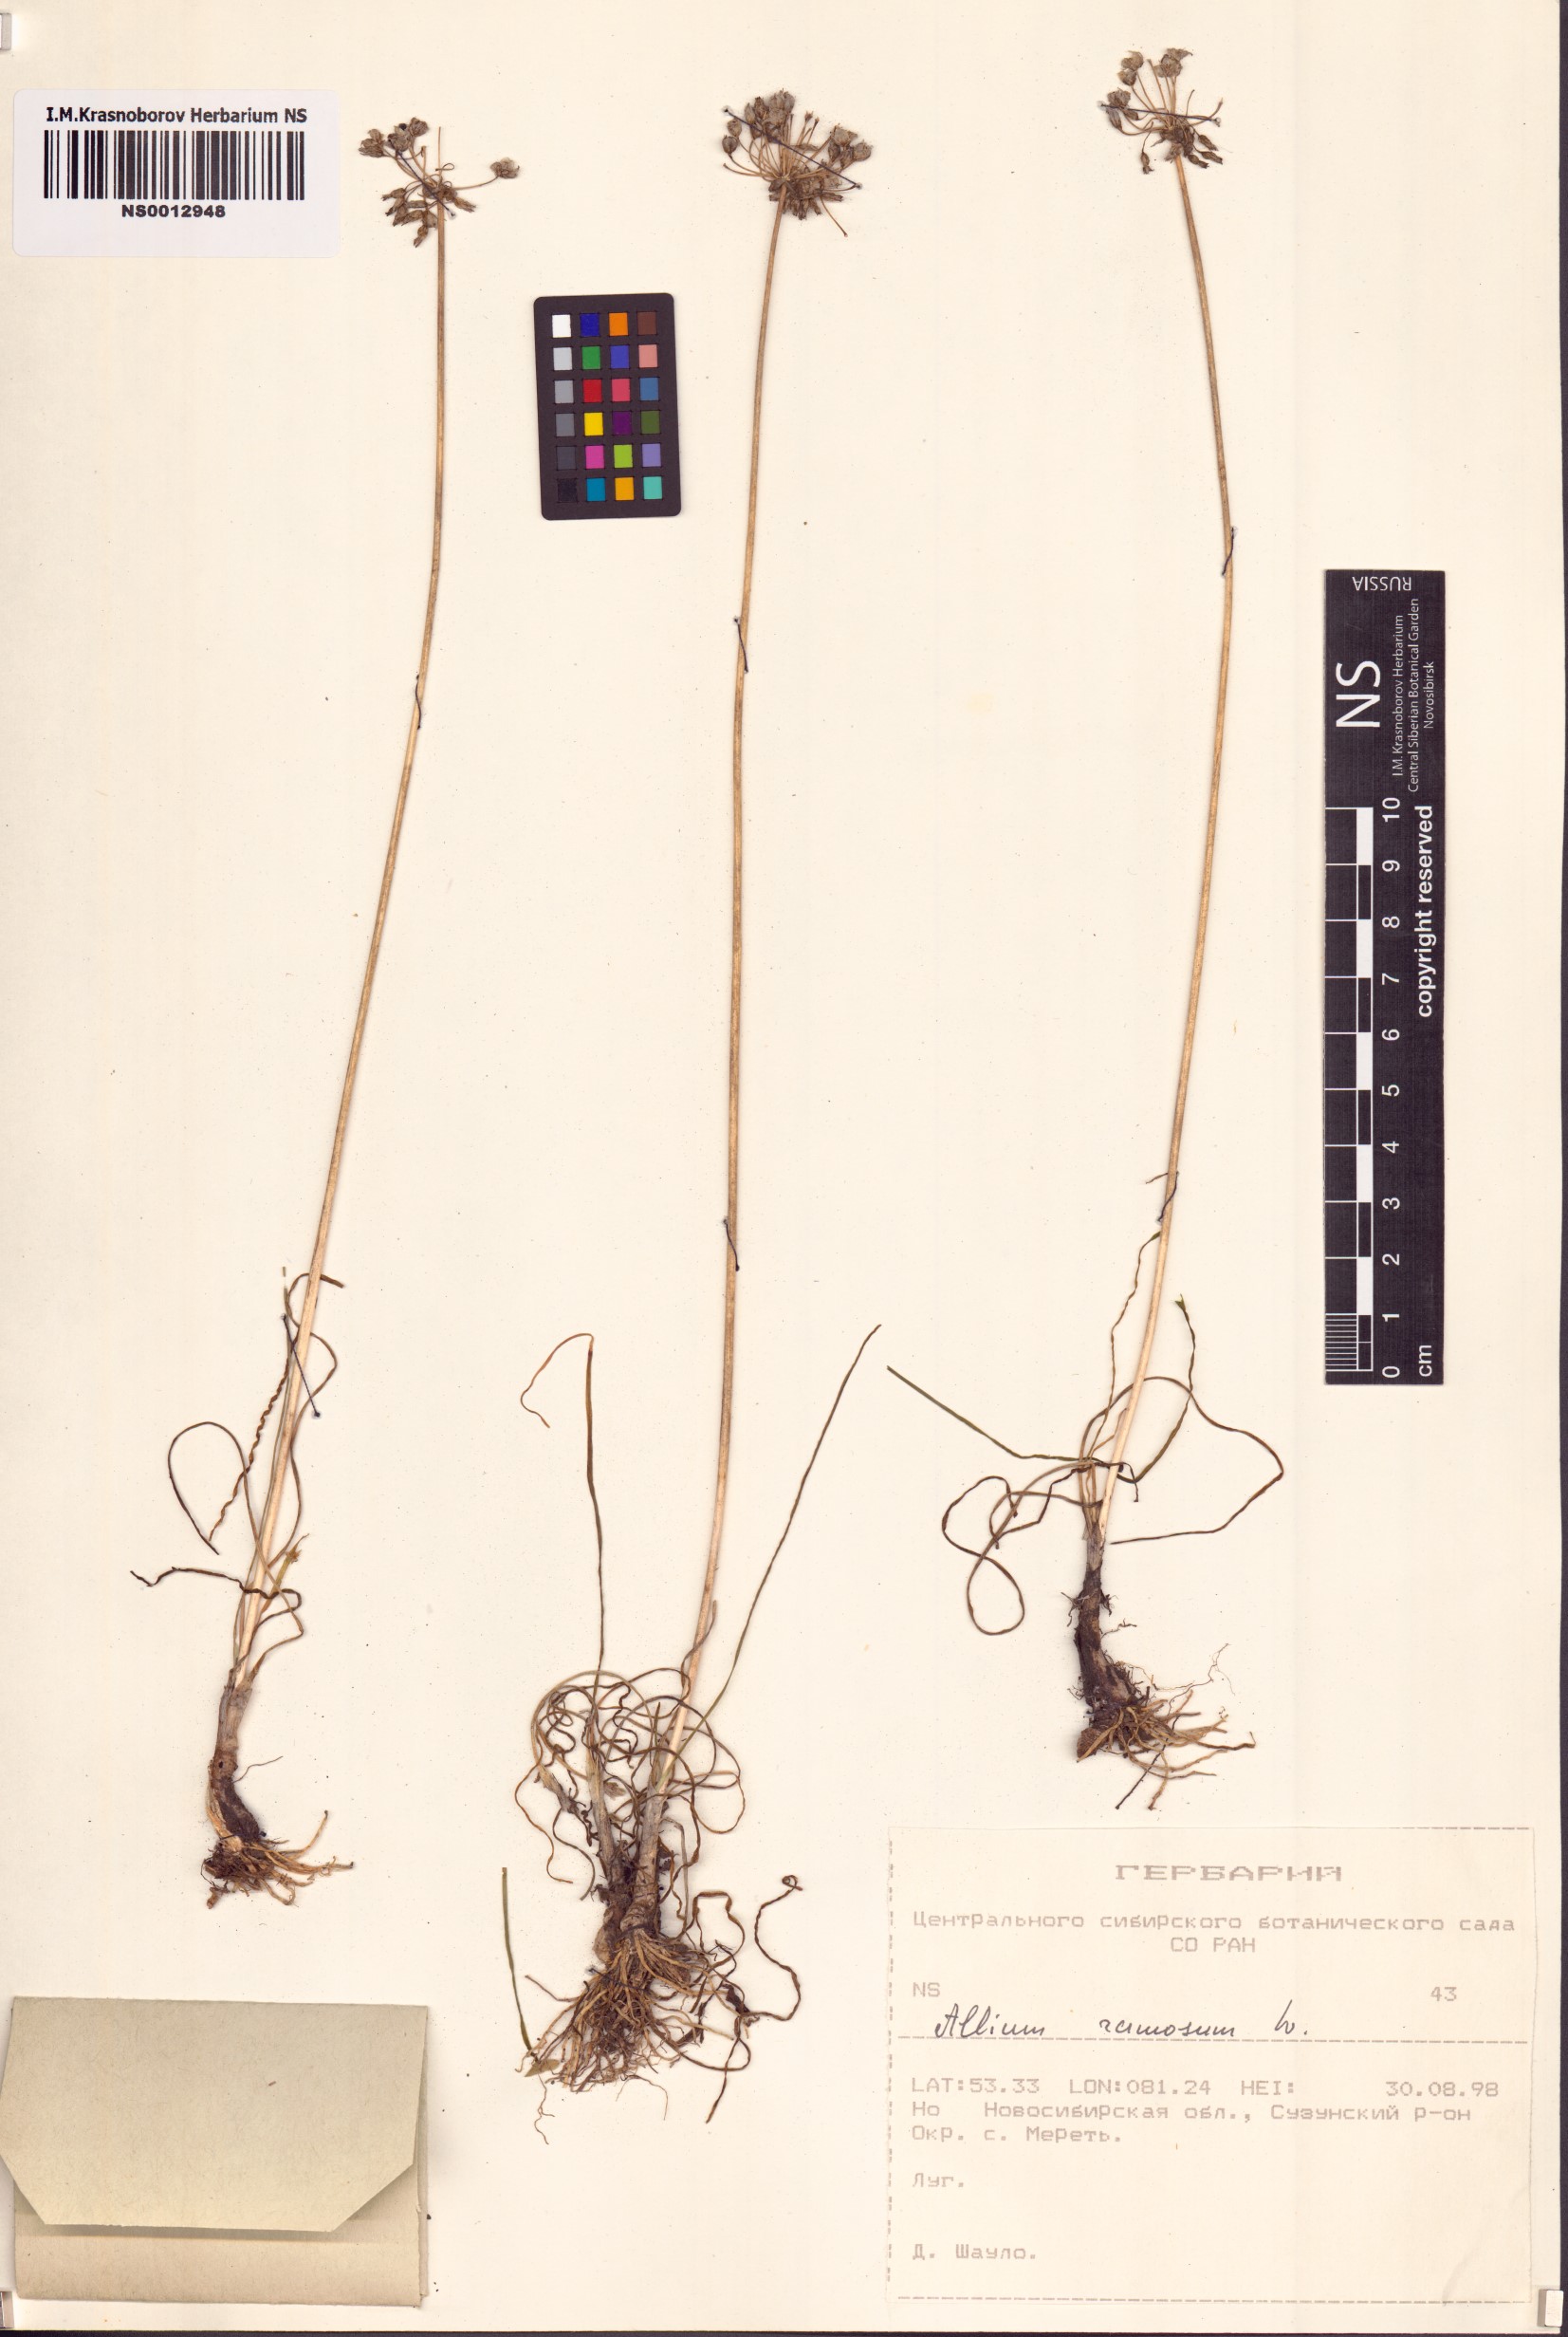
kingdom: Plantae
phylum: Tracheophyta
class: Liliopsida
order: Asparagales
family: Amaryllidaceae
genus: Allium
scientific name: Allium ramosum
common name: Fragrant garlic
